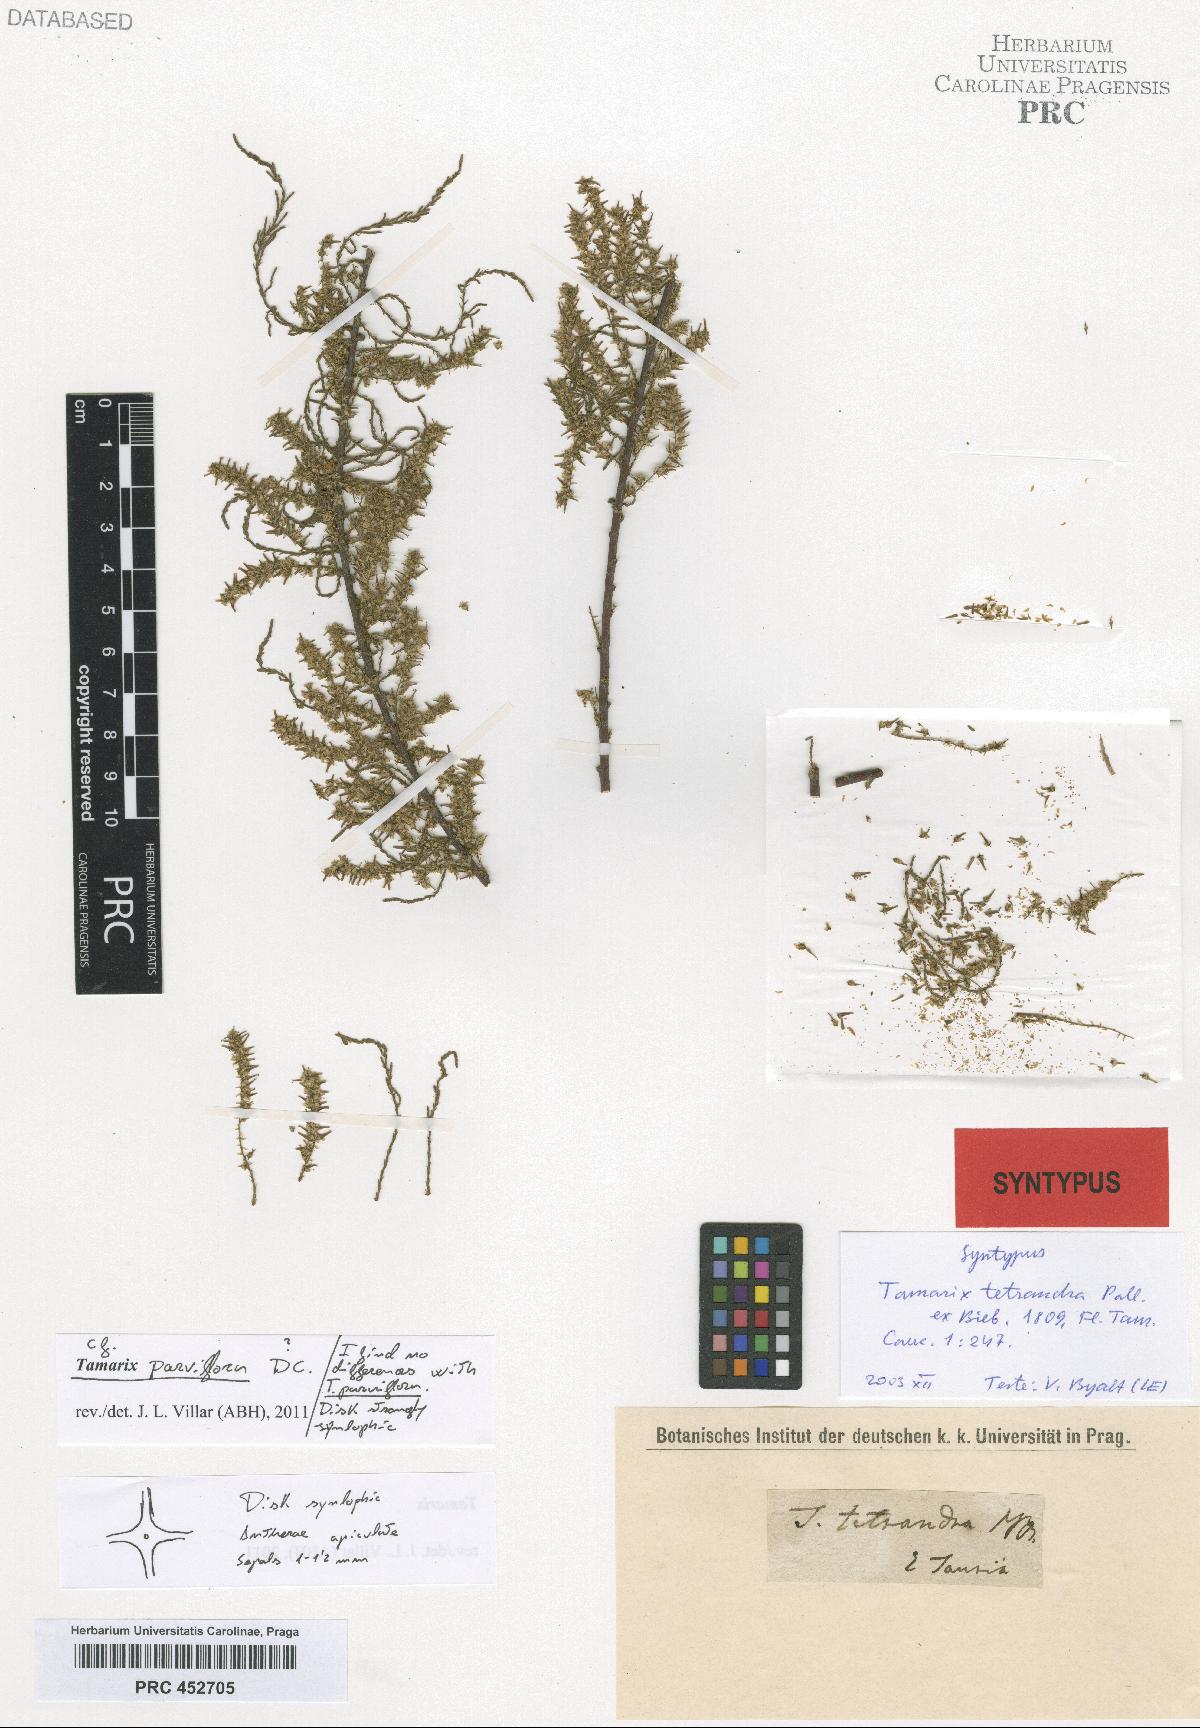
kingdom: Plantae
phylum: Tracheophyta
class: Magnoliopsida
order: Caryophyllales
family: Tamaricaceae
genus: Tamarix
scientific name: Tamarix tetrandra
